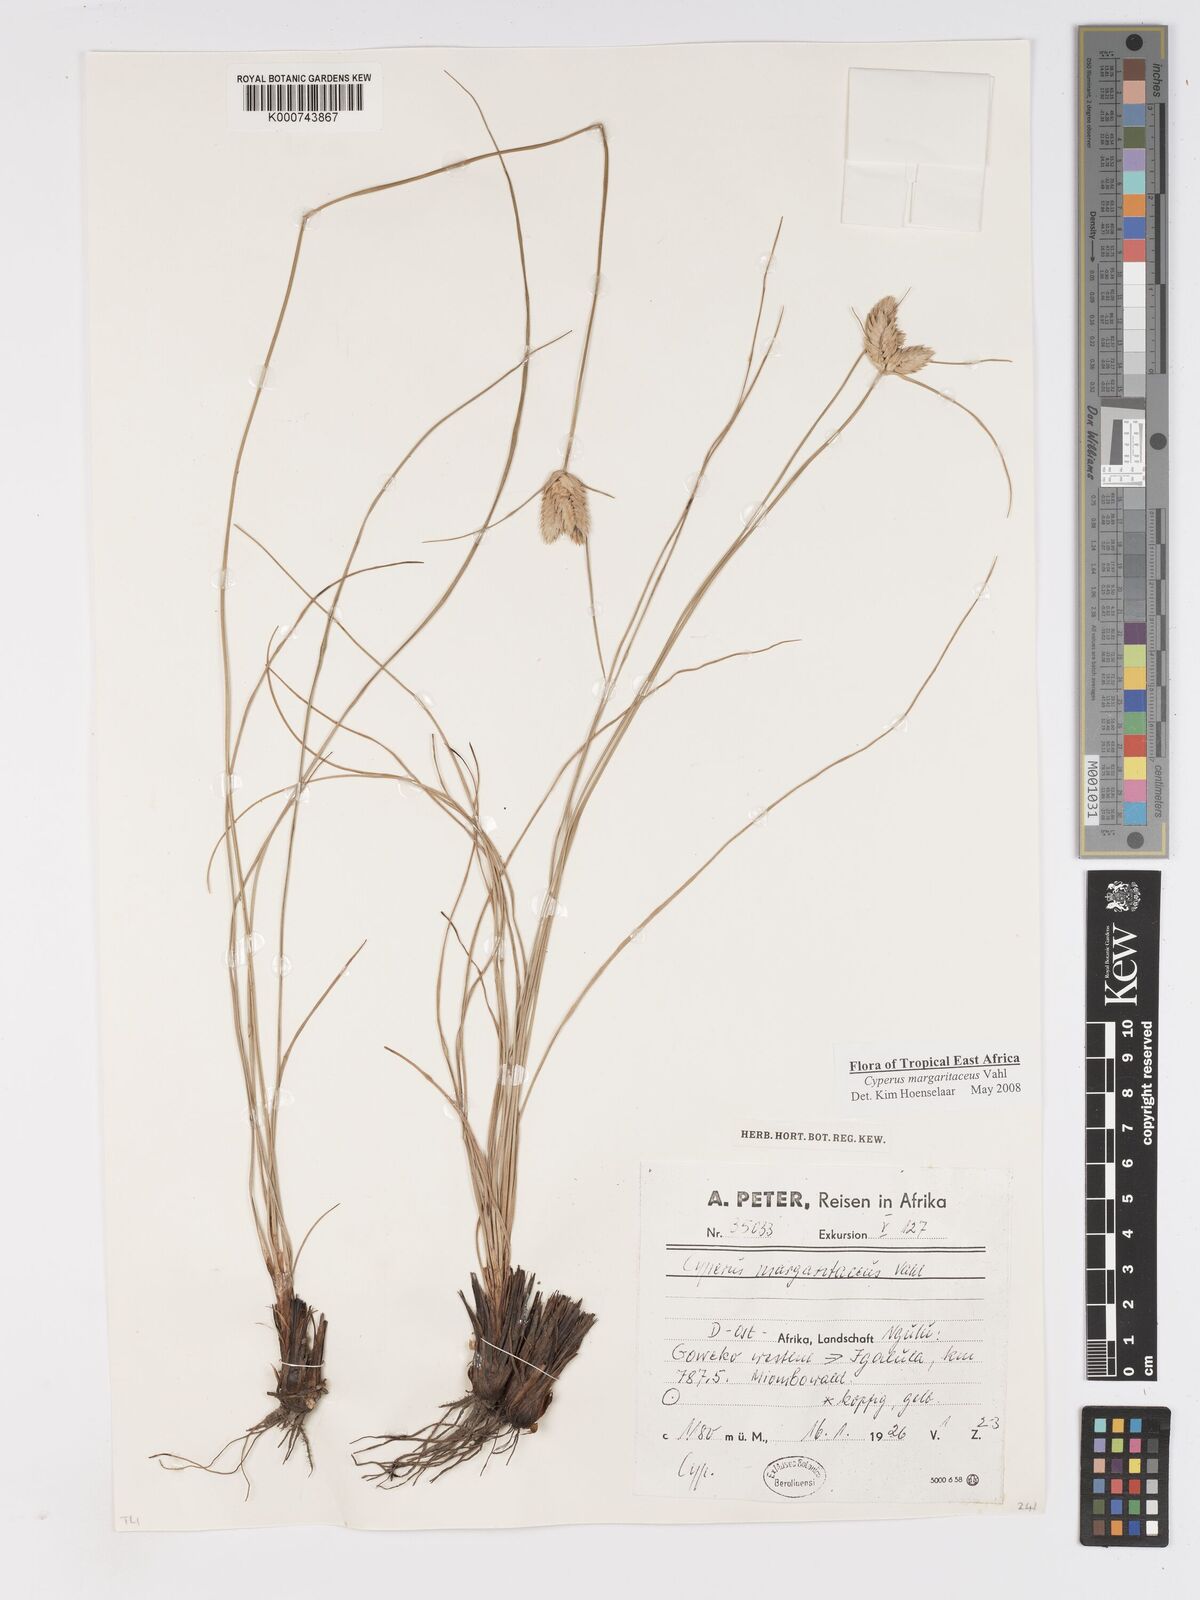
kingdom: Plantae
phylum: Tracheophyta
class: Liliopsida
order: Poales
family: Cyperaceae
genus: Cyperus
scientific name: Cyperus margaritaceus
